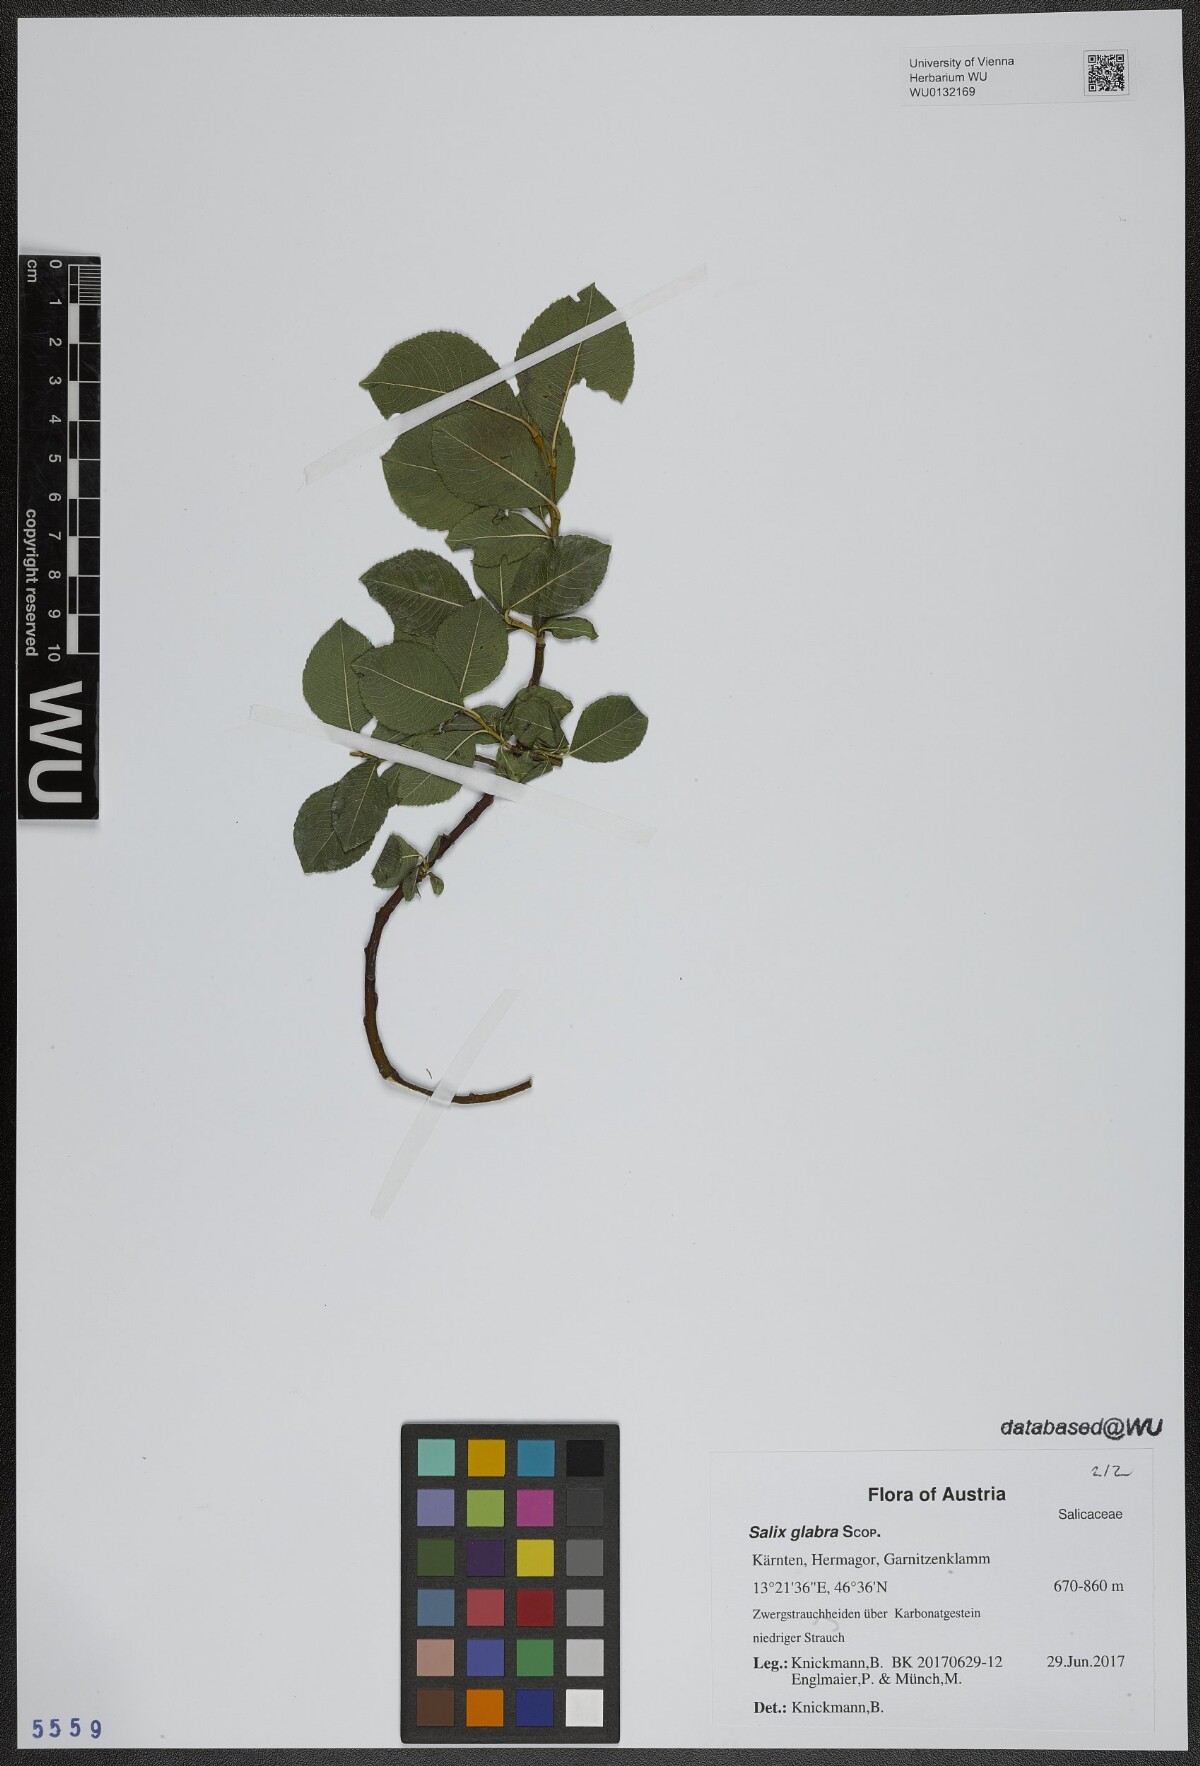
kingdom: Plantae
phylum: Tracheophyta
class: Magnoliopsida
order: Malpighiales
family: Salicaceae
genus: Salix
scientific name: Salix glabra
